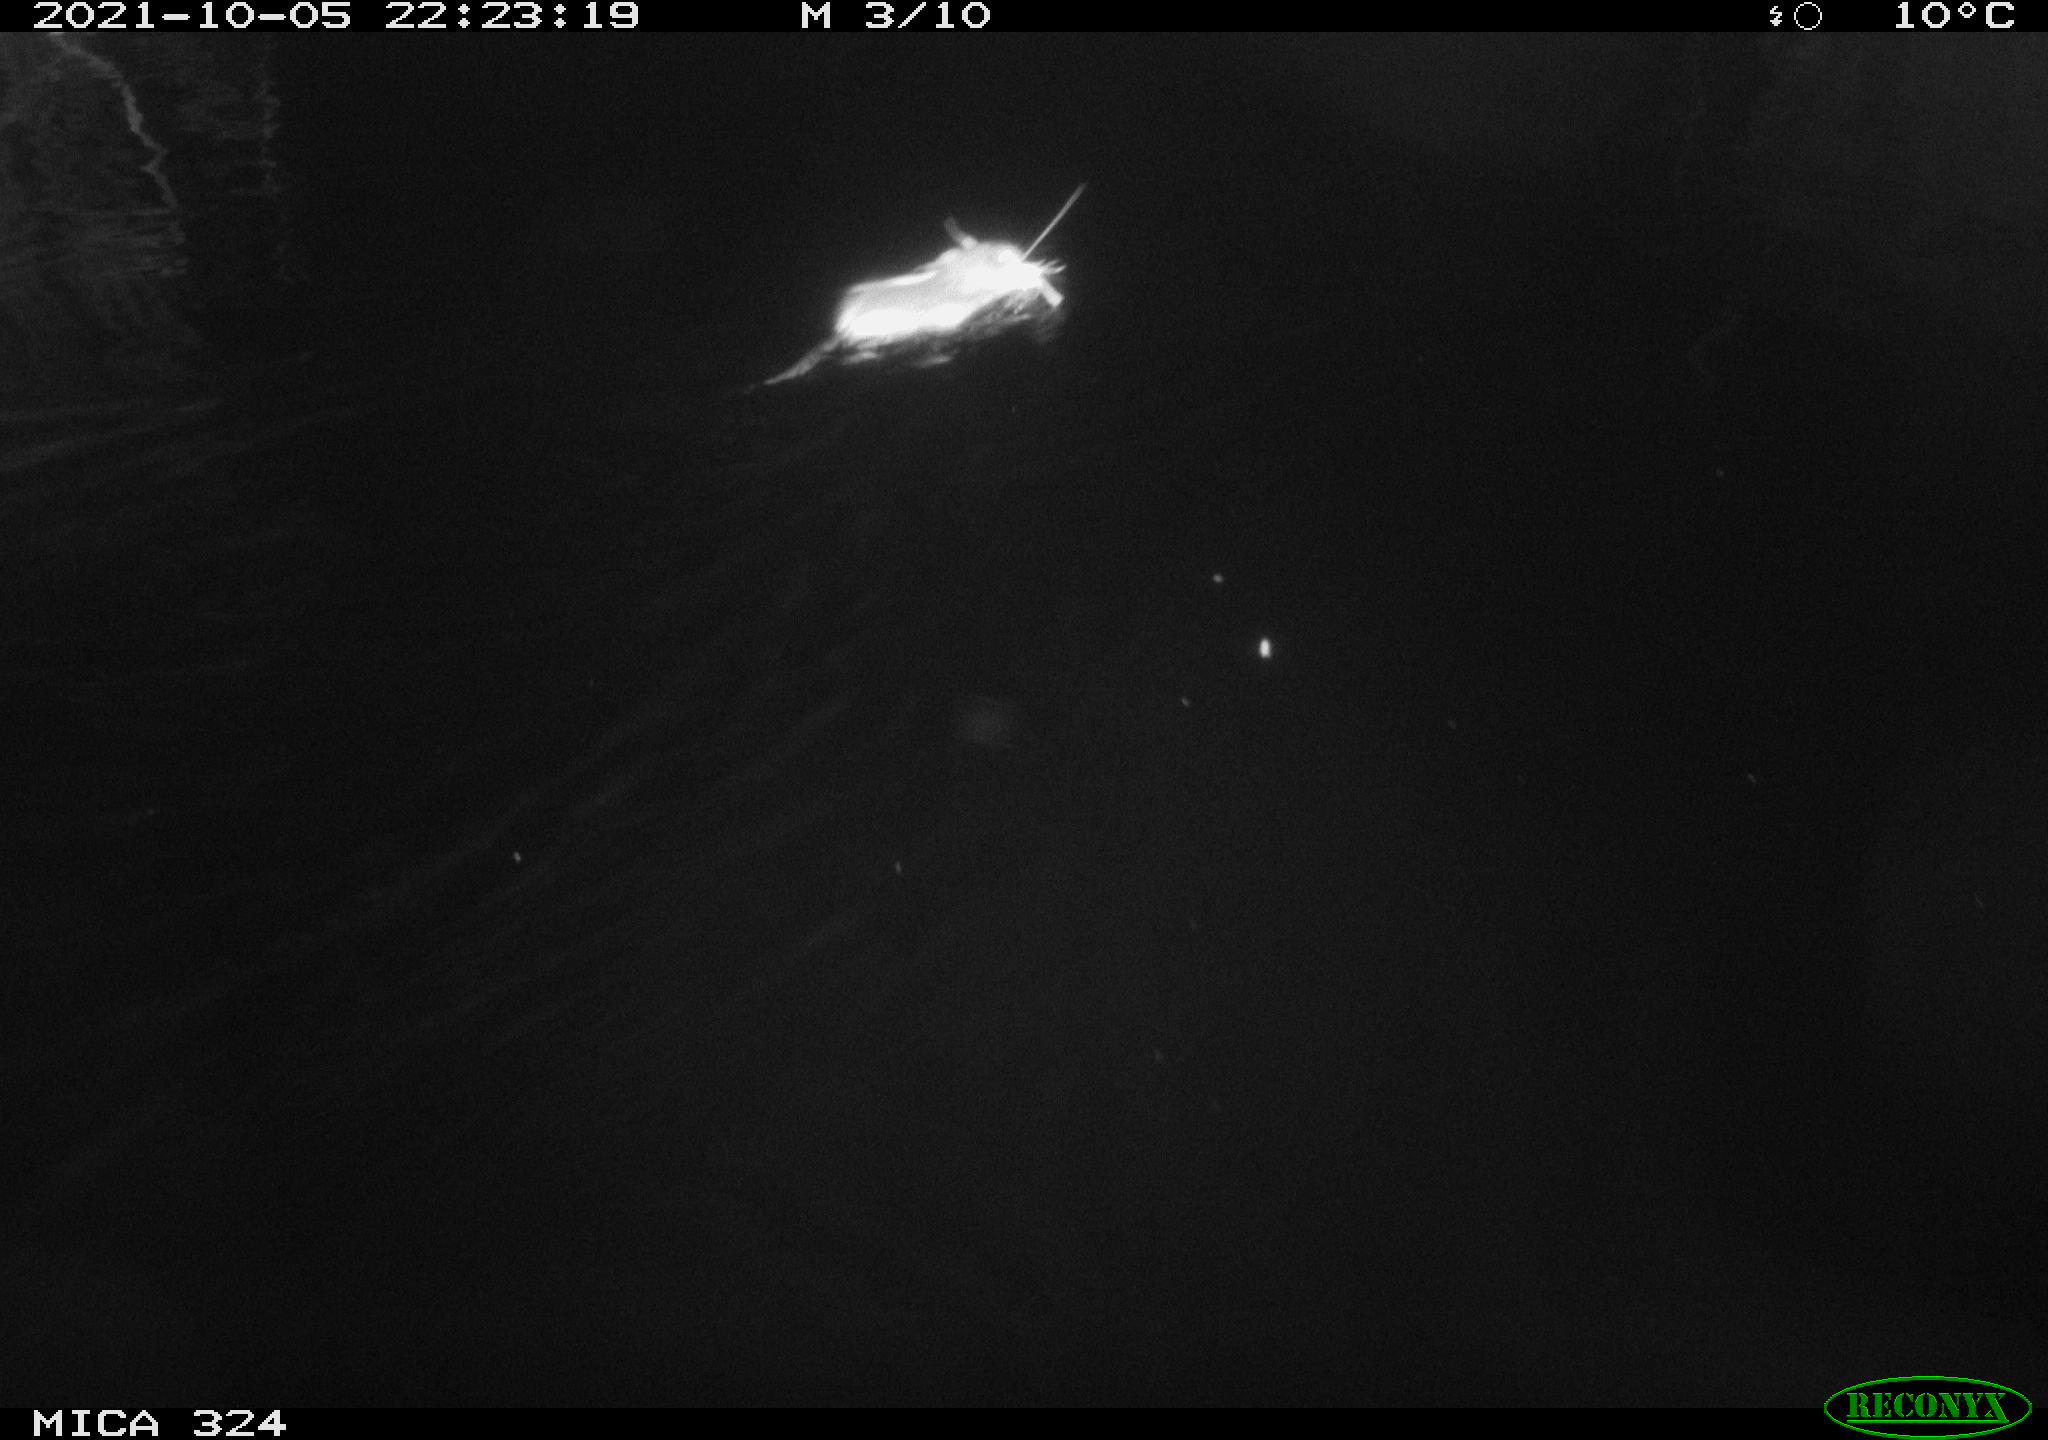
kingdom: Animalia
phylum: Chordata
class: Mammalia
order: Rodentia
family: Cricetidae
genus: Ondatra
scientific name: Ondatra zibethicus
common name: Muskrat
